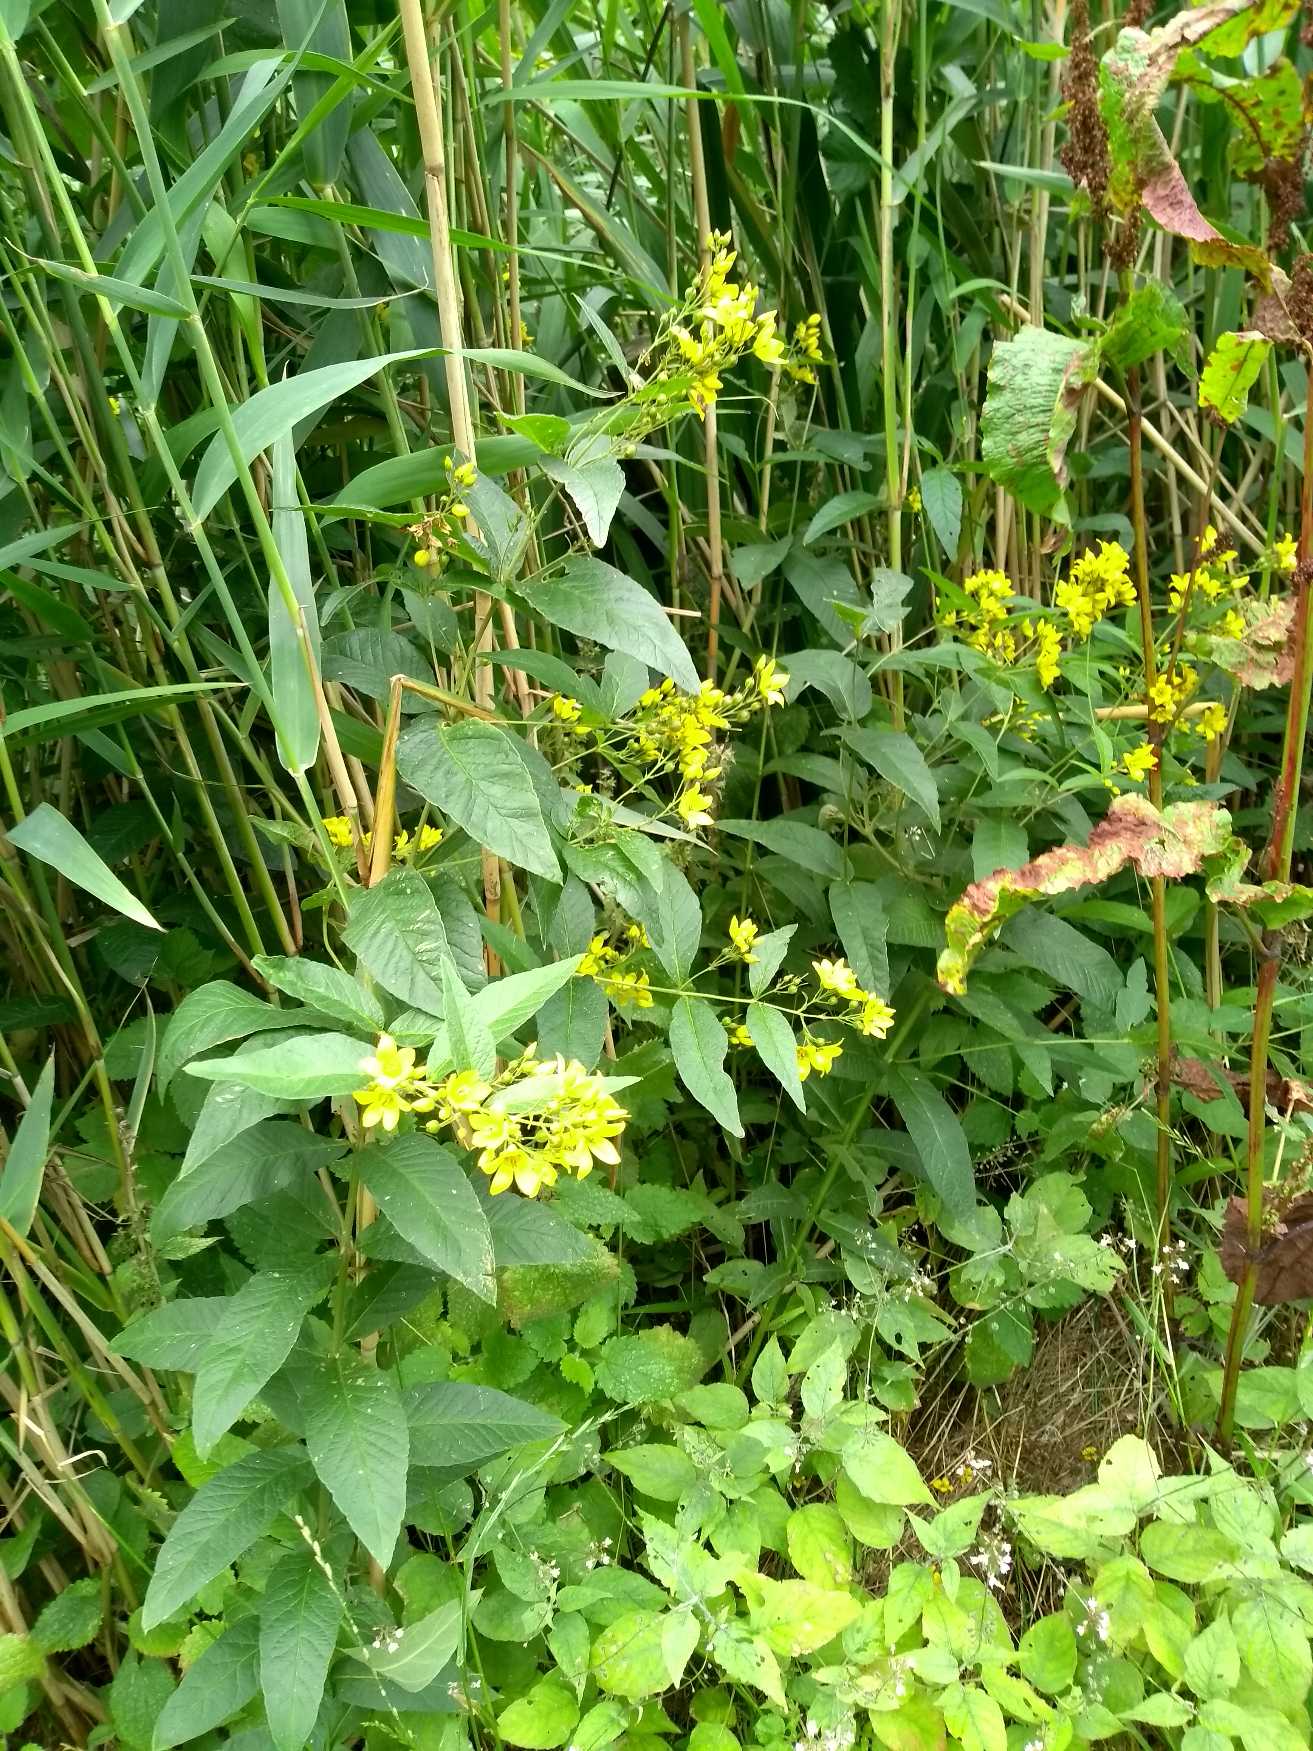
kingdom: Plantae
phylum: Tracheophyta
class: Magnoliopsida
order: Ericales
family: Primulaceae
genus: Lysimachia
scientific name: Lysimachia vulgaris
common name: Almindelig fredløs
